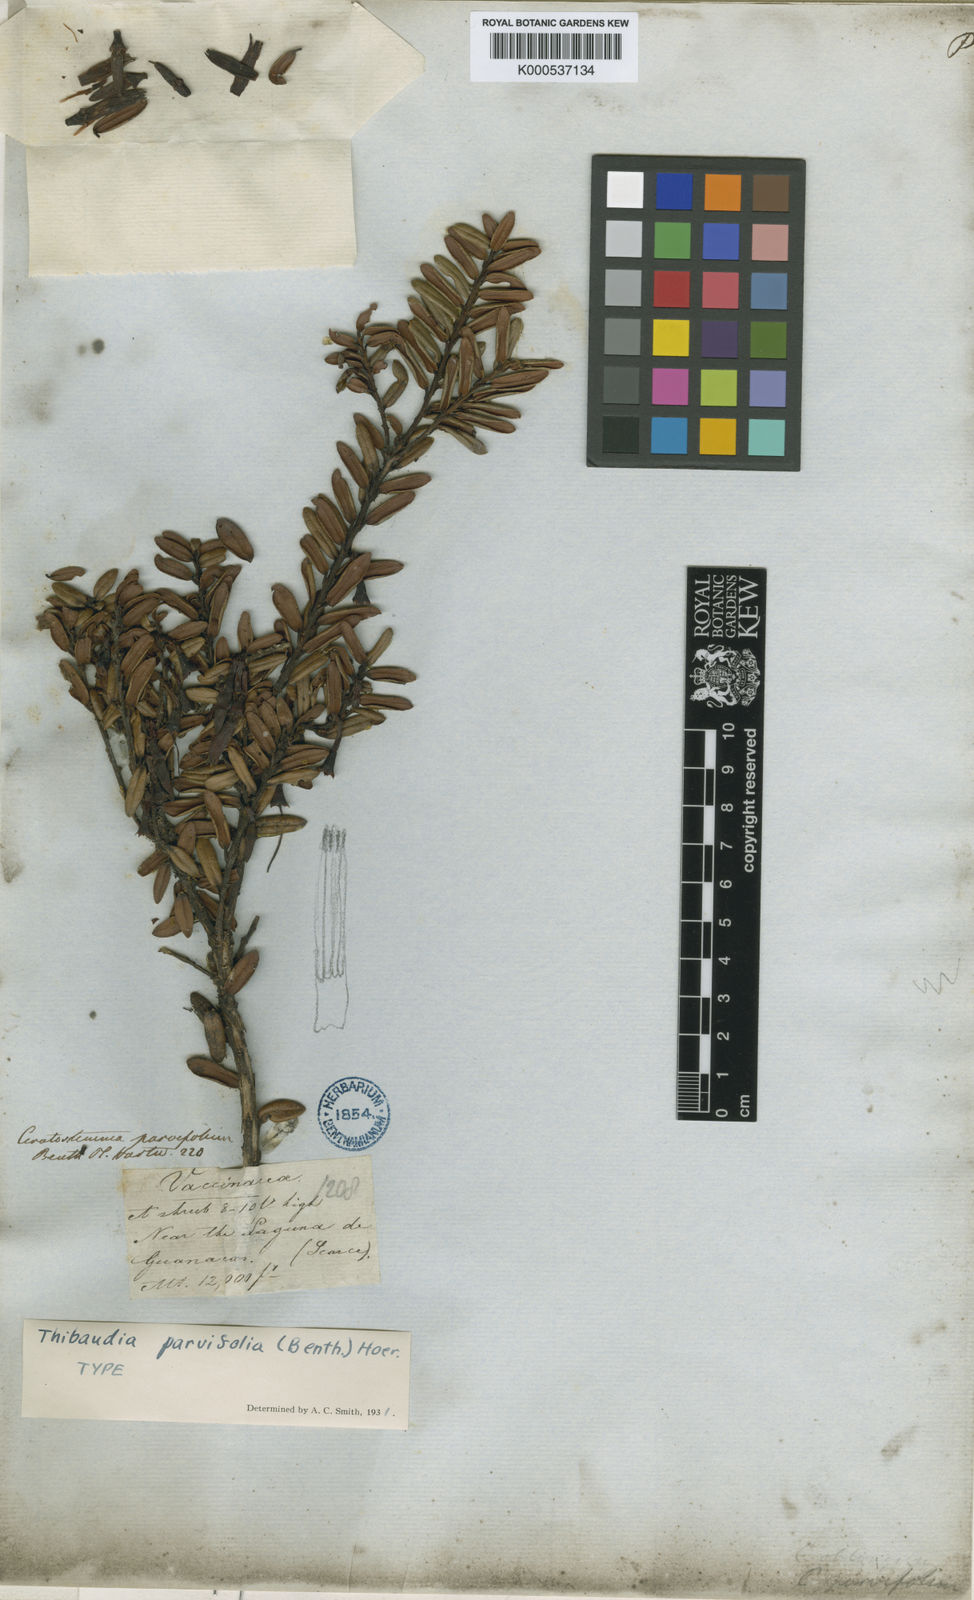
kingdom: Plantae
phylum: Tracheophyta
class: Magnoliopsida
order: Ericales
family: Ericaceae
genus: Thibaudia
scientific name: Thibaudia parvifolia
